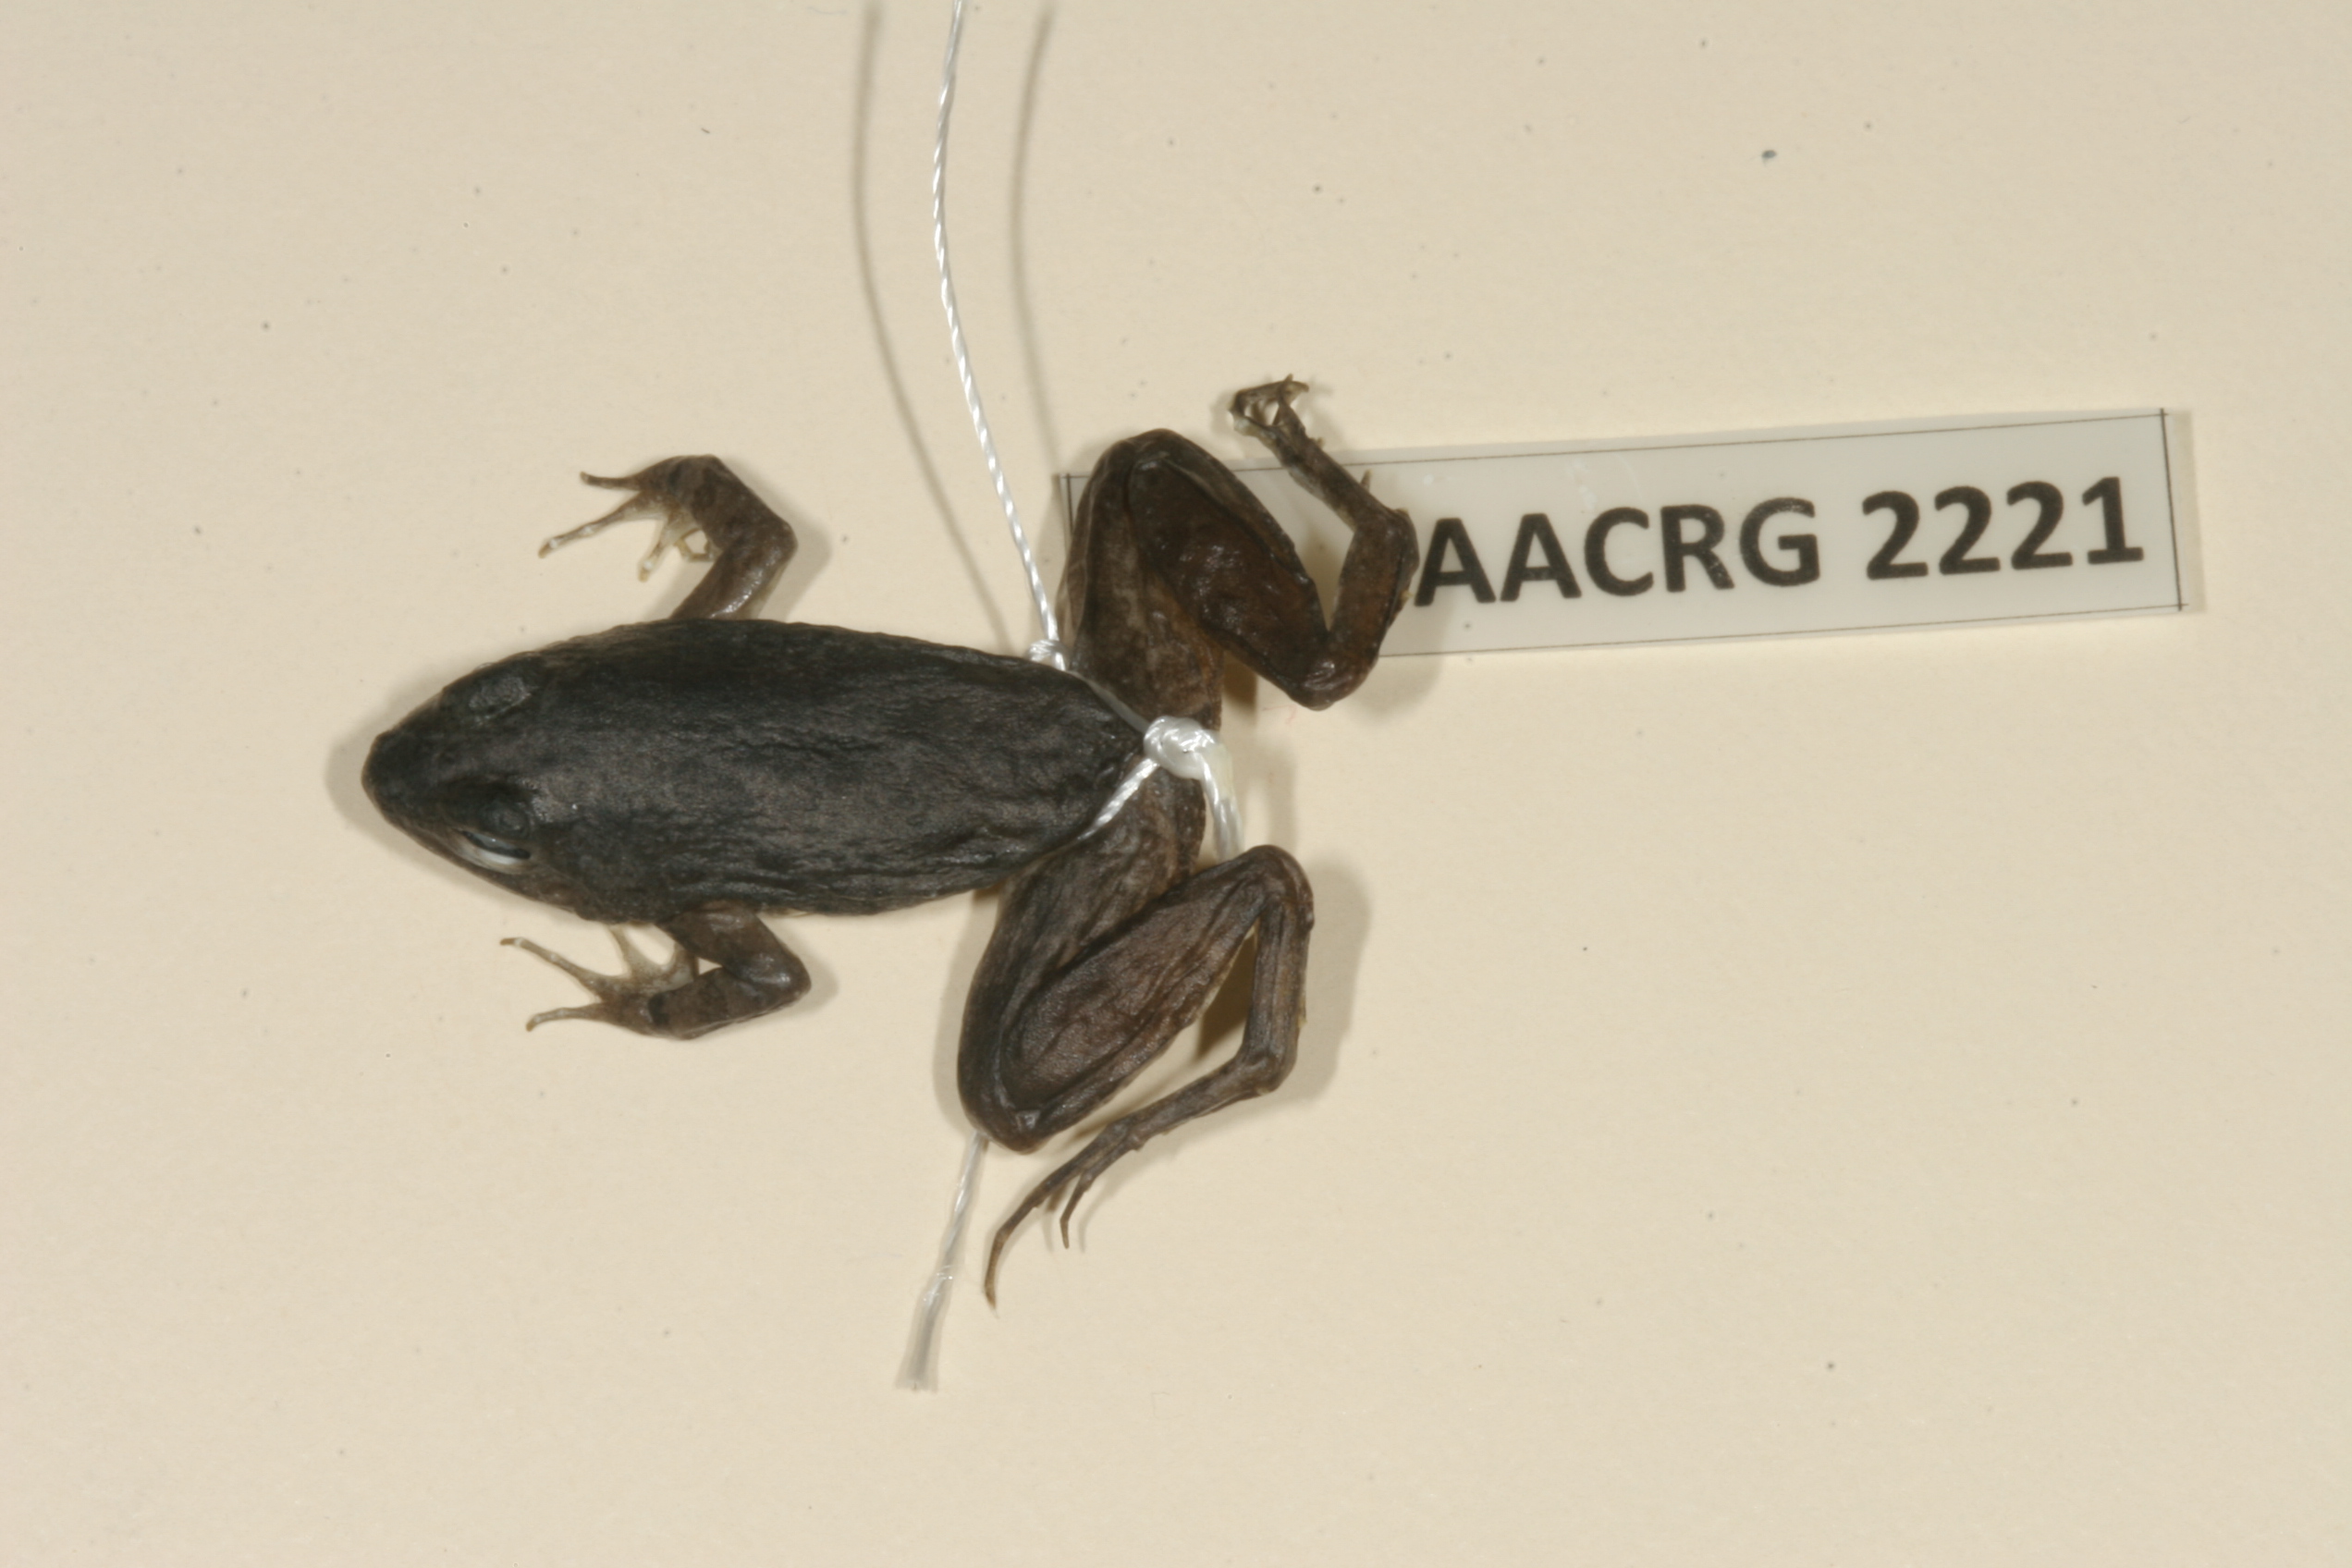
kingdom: Animalia
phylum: Chordata
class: Amphibia
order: Anura
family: Phrynobatrachidae
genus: Phrynobatrachus
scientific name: Phrynobatrachus natalensis
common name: Snoring puddle frog
